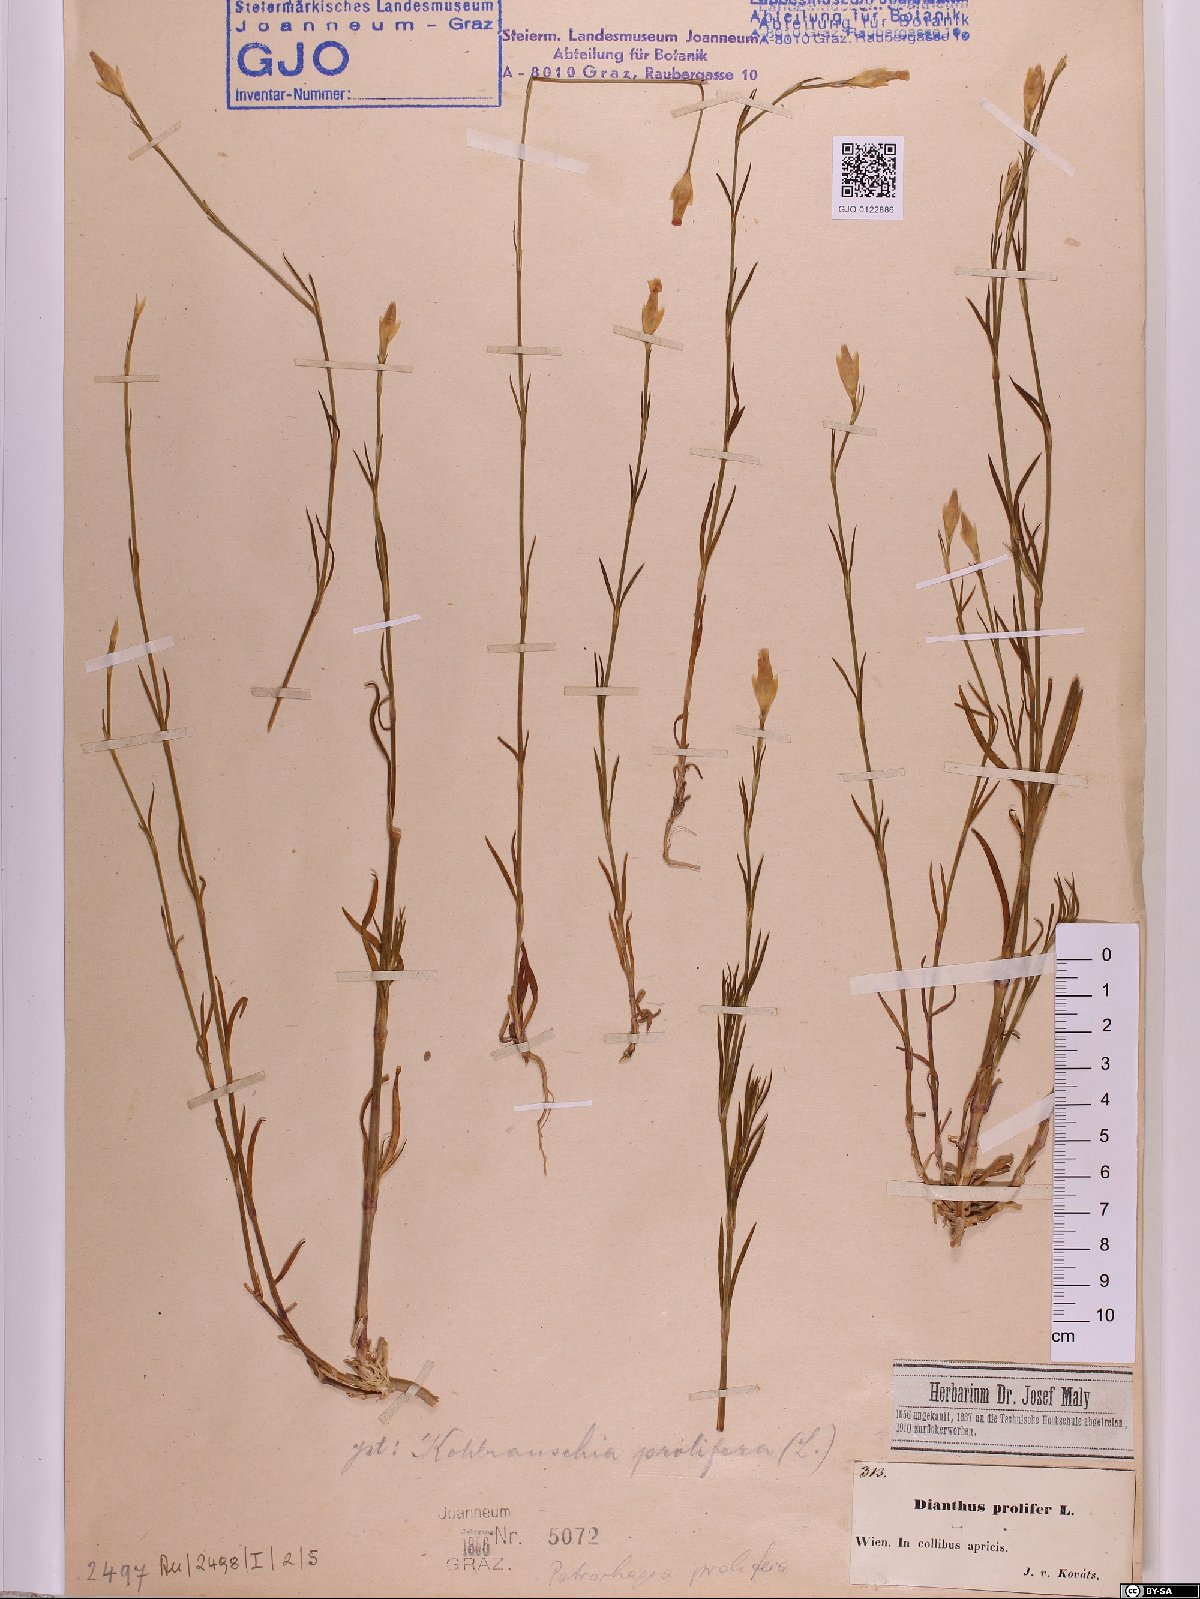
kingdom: Plantae
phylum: Tracheophyta
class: Magnoliopsida
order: Caryophyllales
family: Caryophyllaceae
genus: Petrorhagia
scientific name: Petrorhagia prolifera
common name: Proliferous pink
